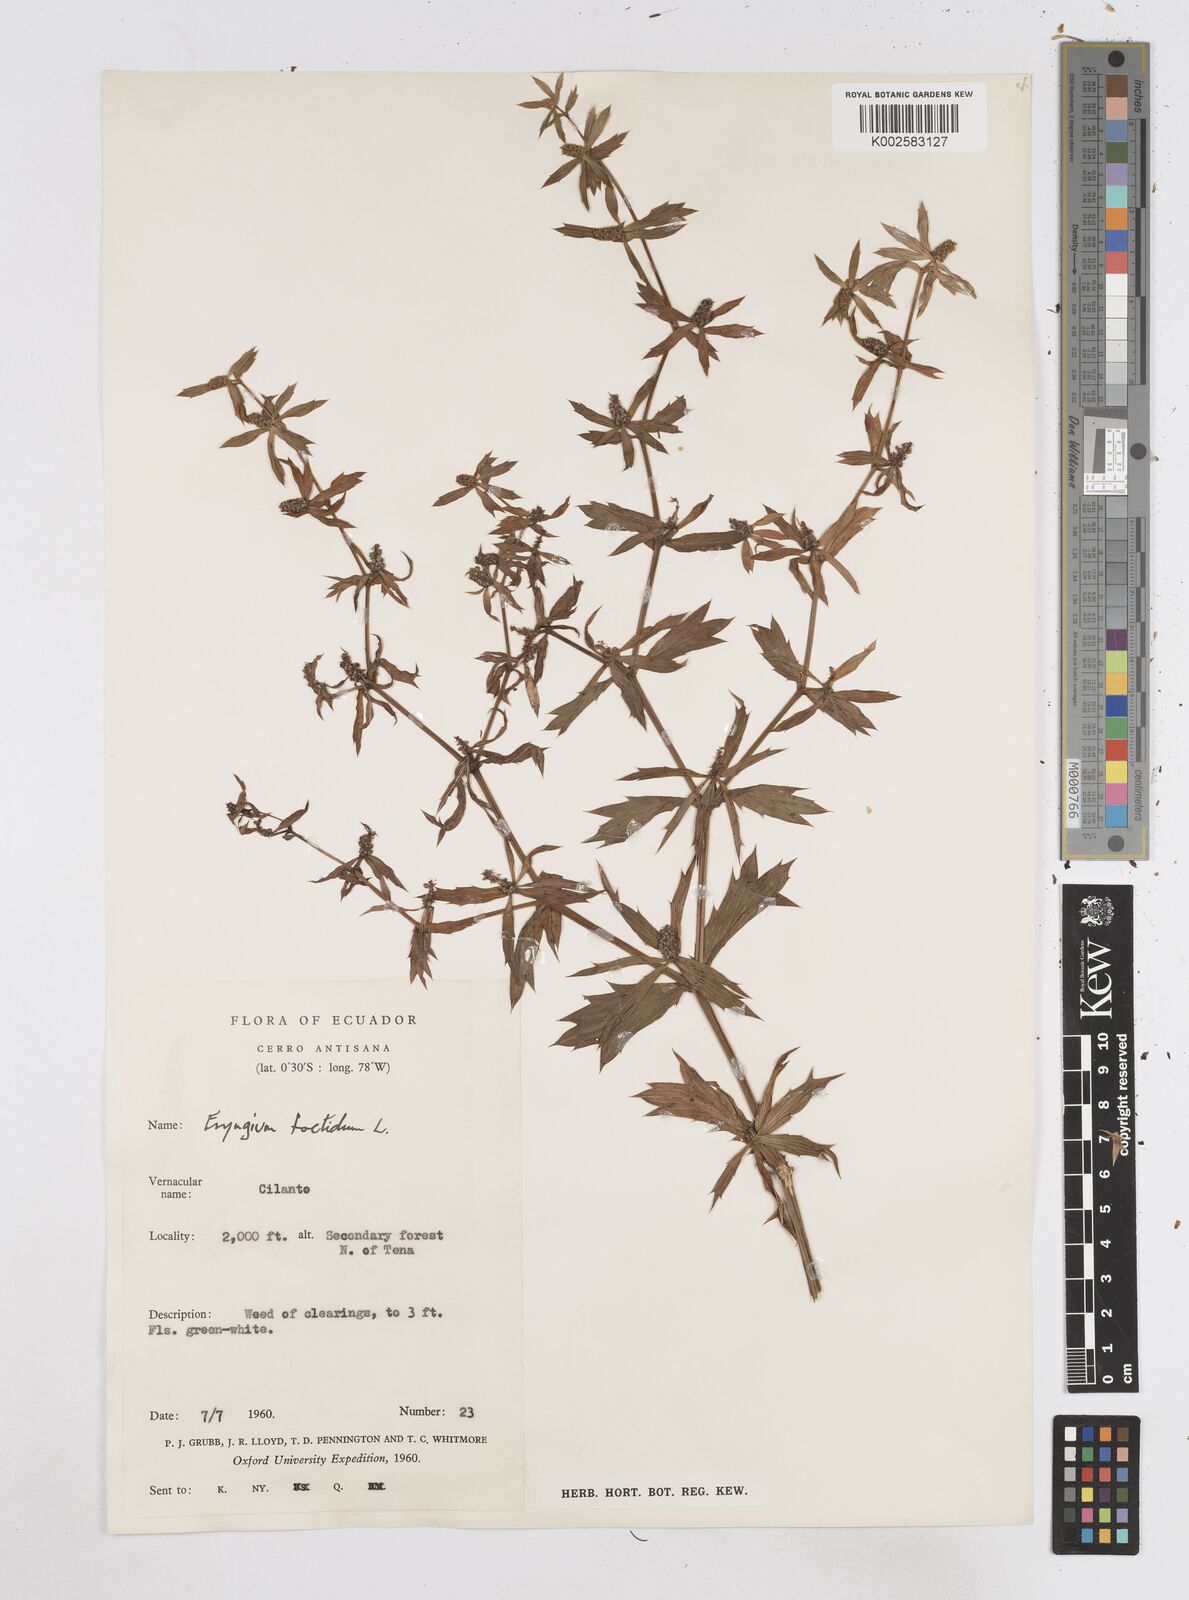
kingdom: Plantae
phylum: Tracheophyta
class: Magnoliopsida
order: Apiales
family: Apiaceae
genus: Eryngium
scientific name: Eryngium foetidum
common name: Fitweed
